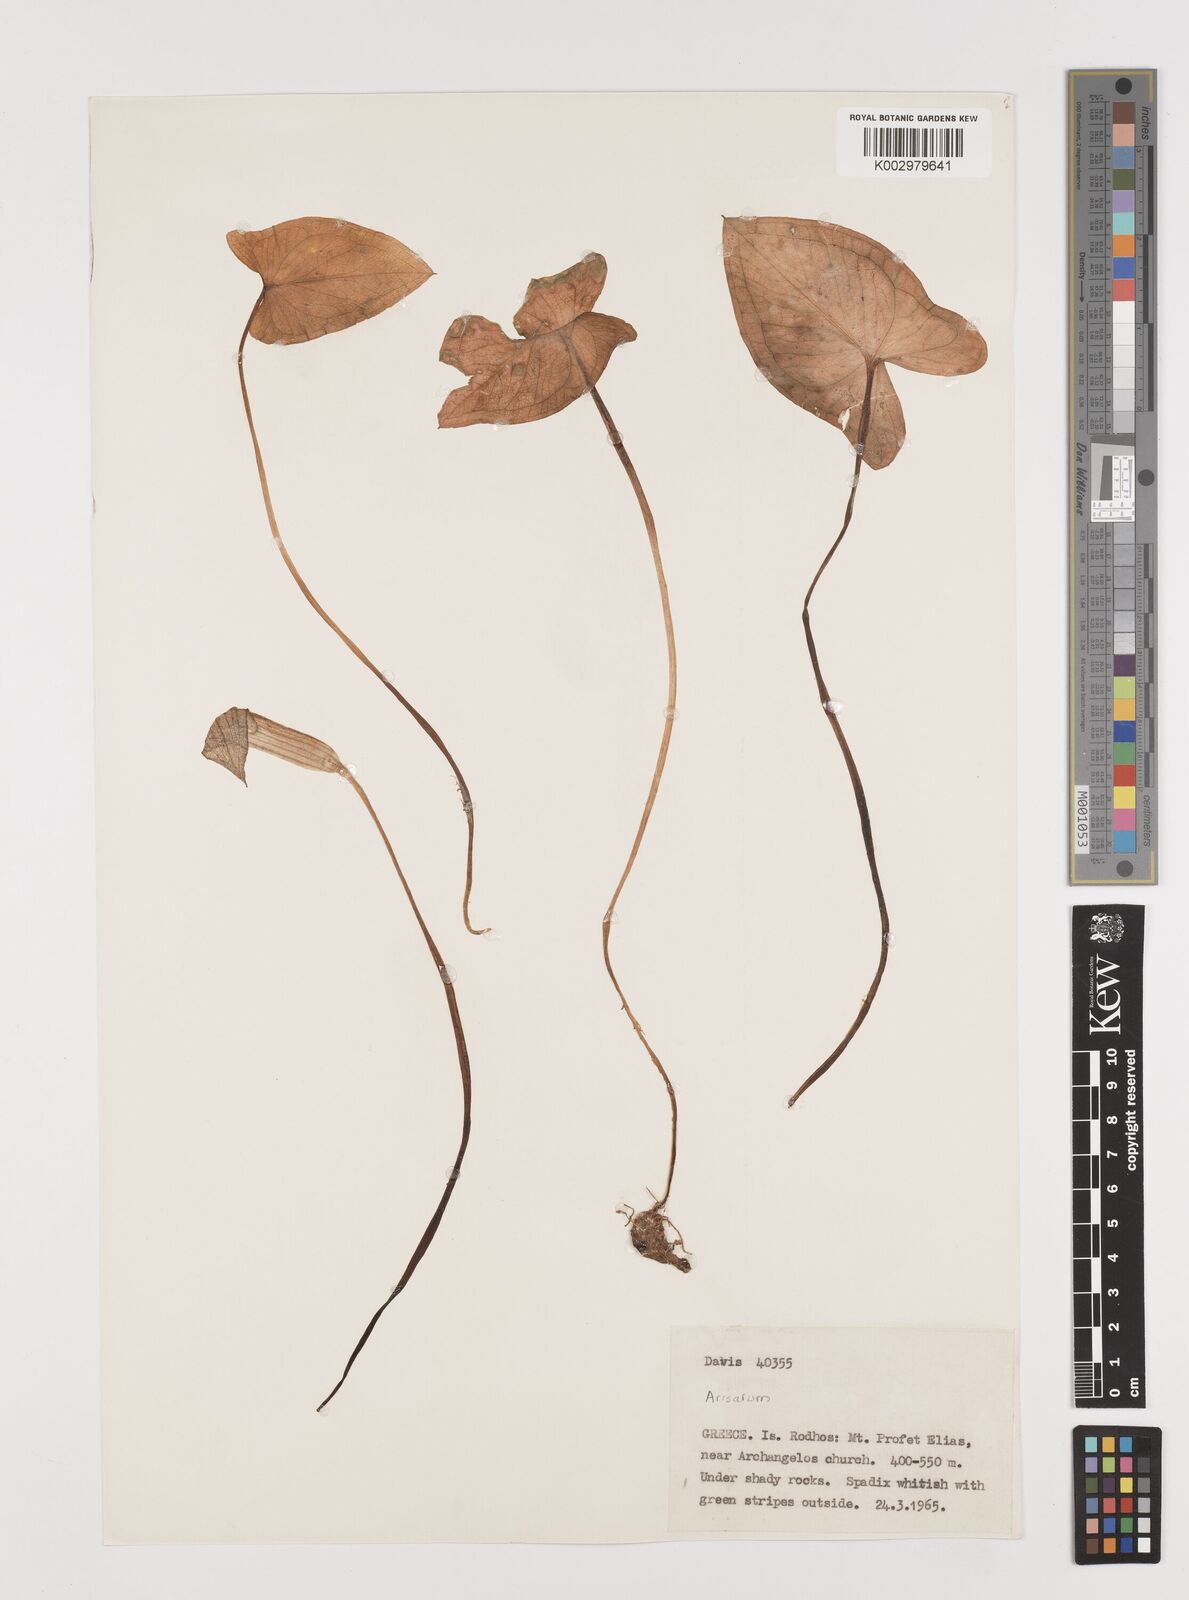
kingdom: Plantae
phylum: Tracheophyta
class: Liliopsida
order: Alismatales
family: Araceae
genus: Arisarum
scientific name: Arisarum vulgare
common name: Common arisarum
